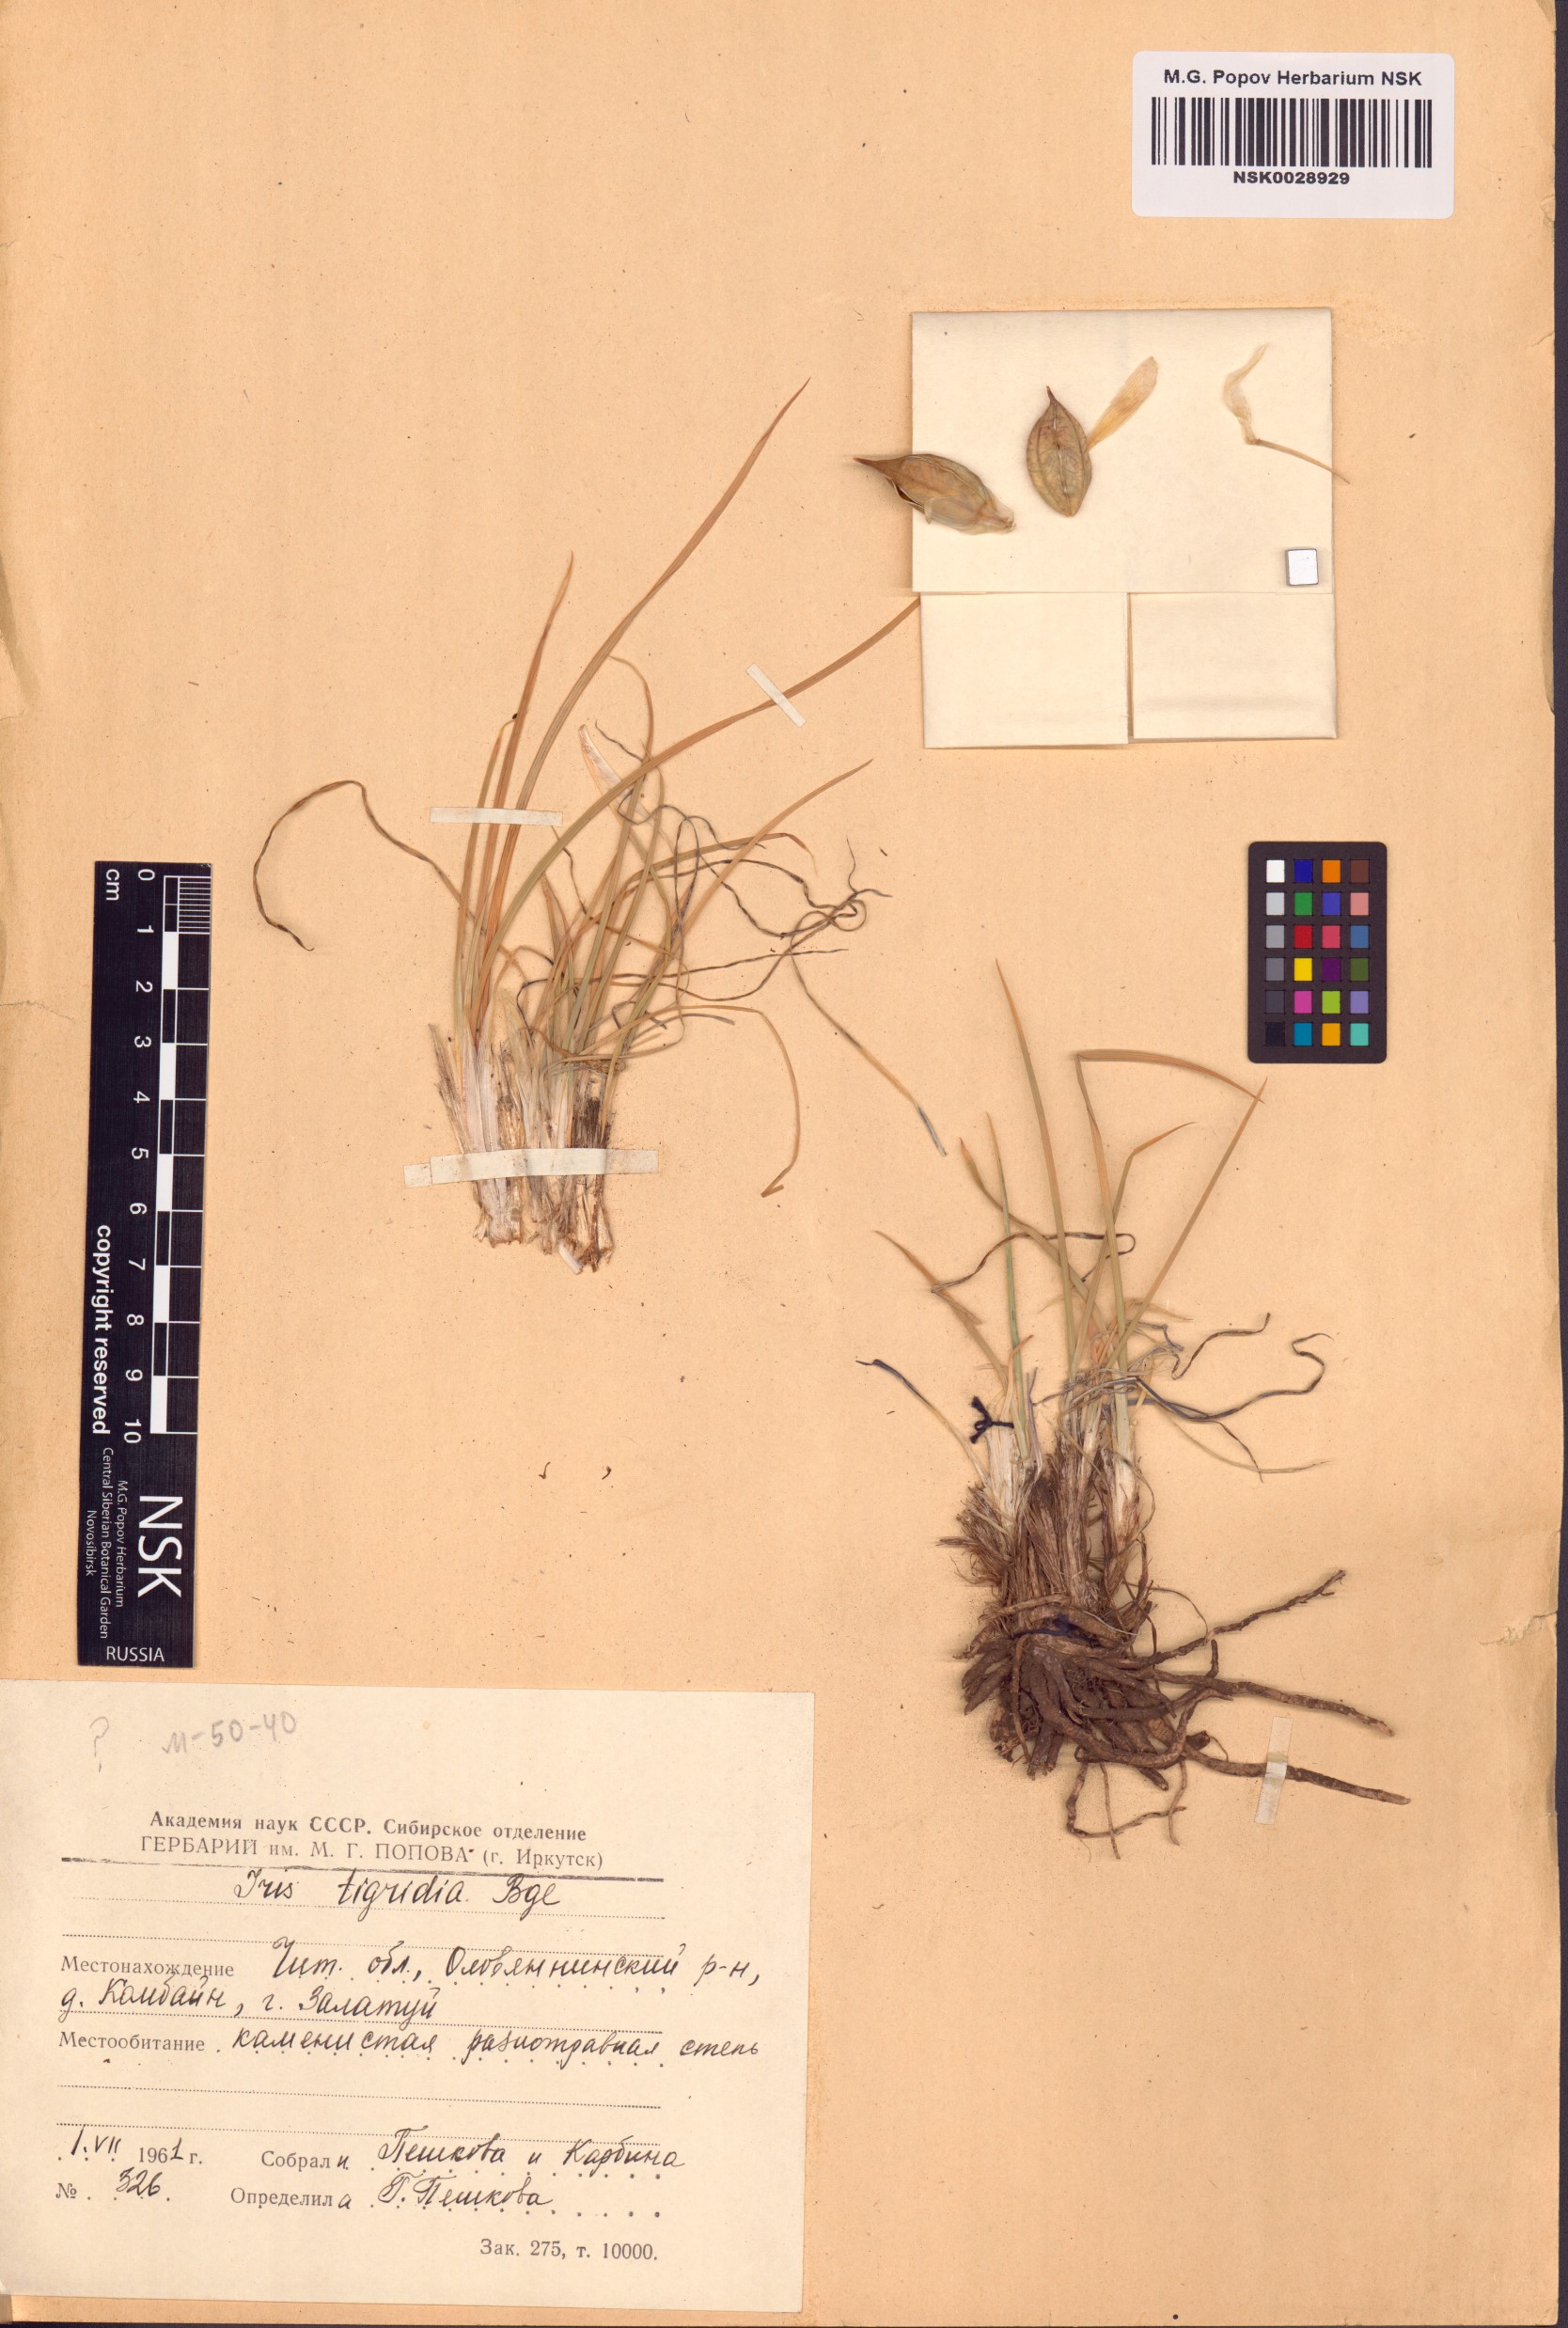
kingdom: Plantae
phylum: Tracheophyta
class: Liliopsida
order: Asparagales
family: Iridaceae
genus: Iris
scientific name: Iris tigridia
